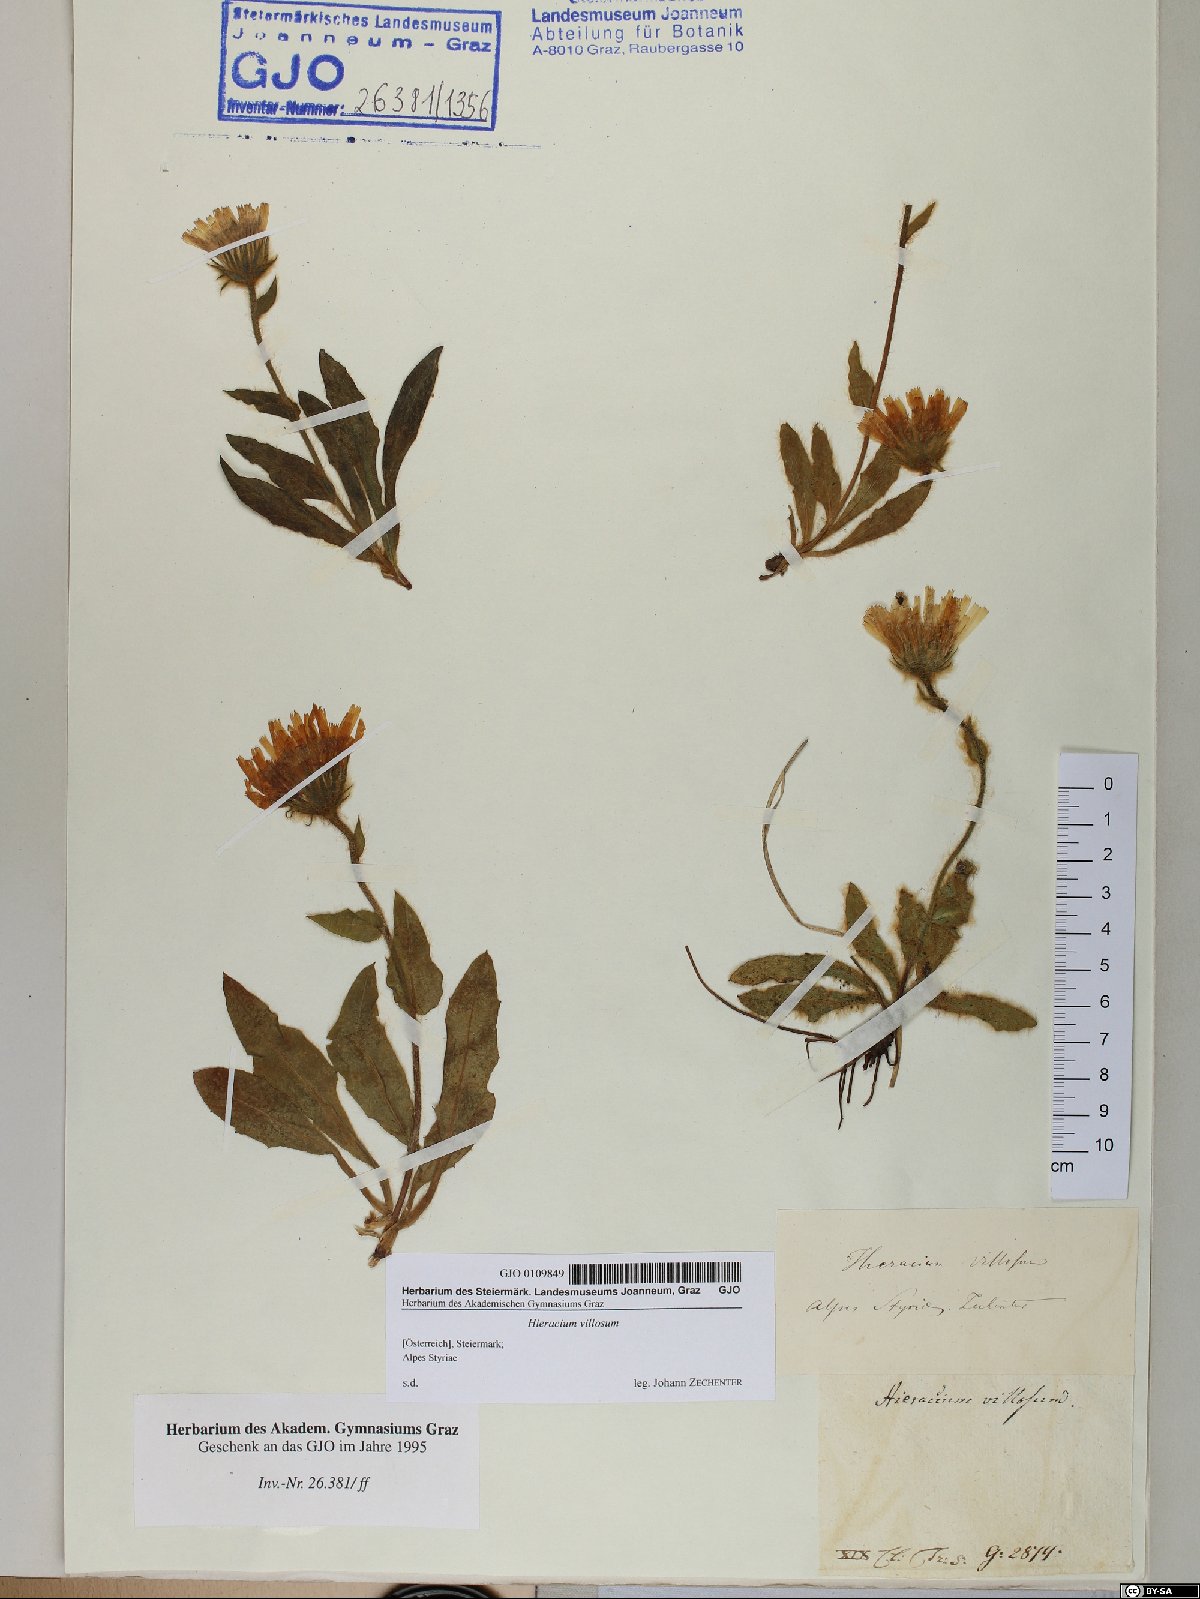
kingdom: Plantae
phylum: Tracheophyta
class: Magnoliopsida
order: Asterales
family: Asteraceae
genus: Hieracium
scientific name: Hieracium villosum
